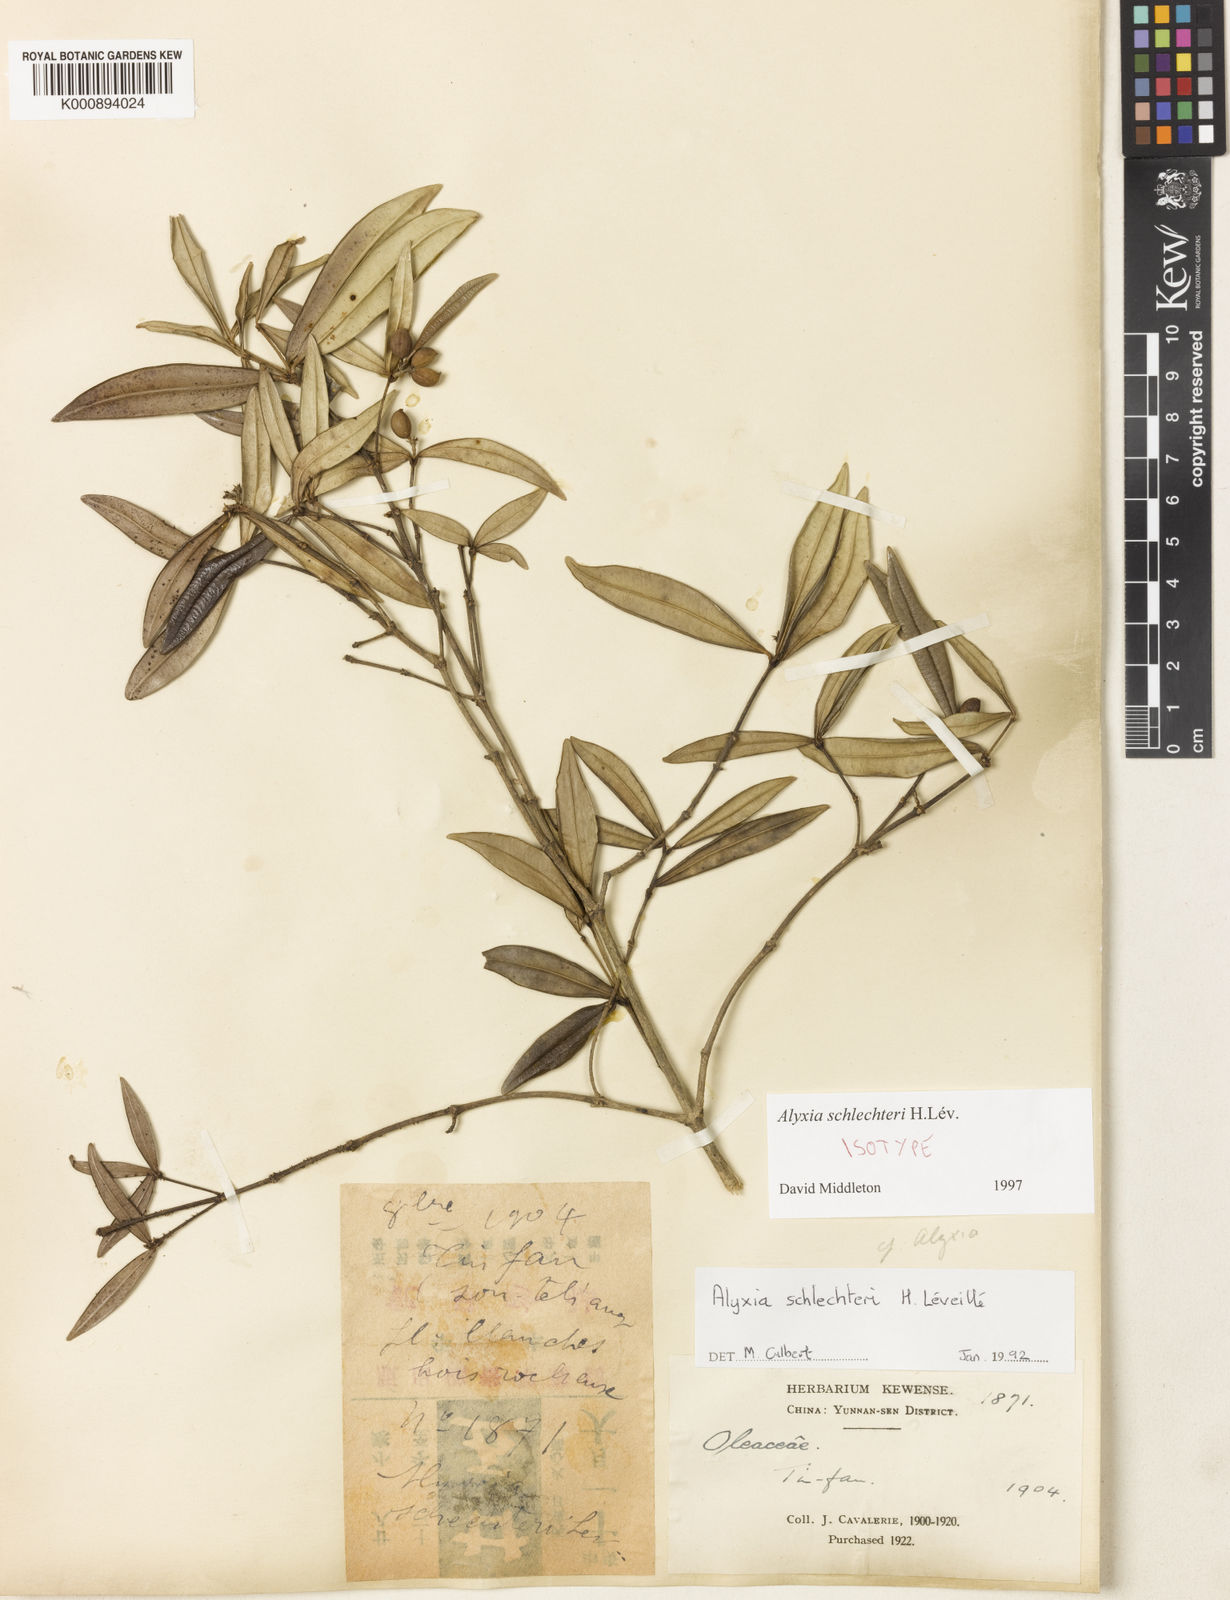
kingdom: Plantae
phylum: Tracheophyta
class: Magnoliopsida
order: Gentianales
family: Apocynaceae
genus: Alyxia
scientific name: Alyxia
